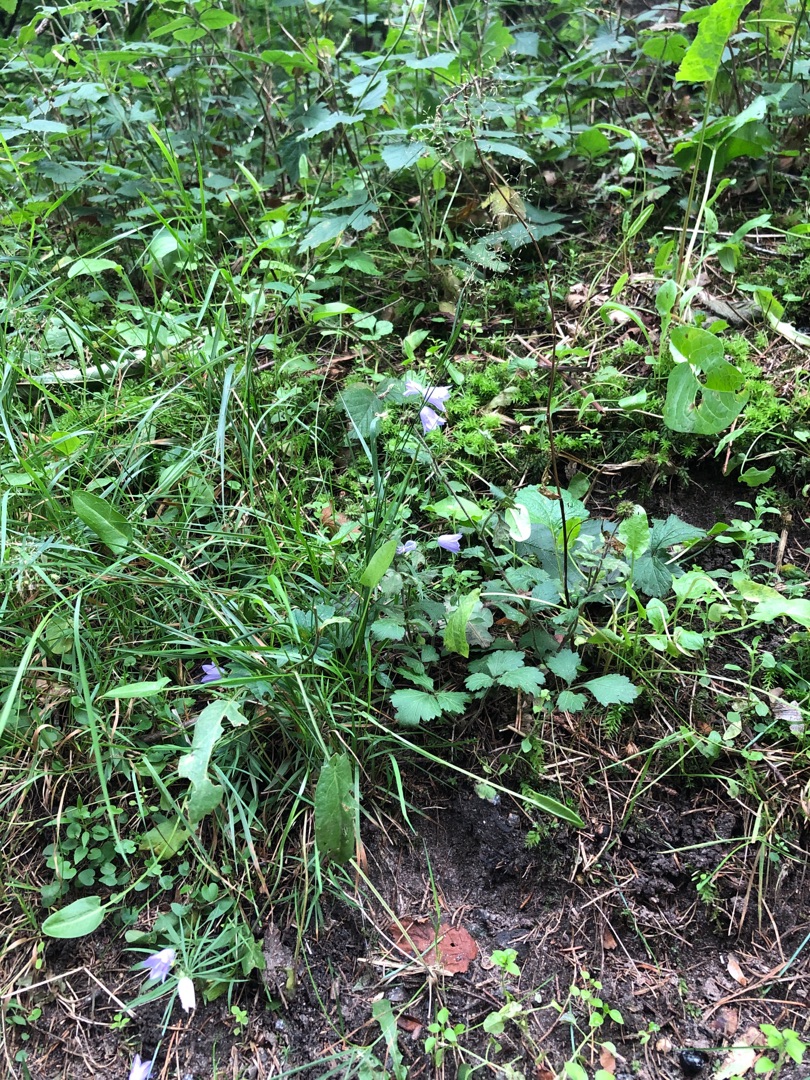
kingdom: Plantae
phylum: Tracheophyta
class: Magnoliopsida
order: Asterales
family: Campanulaceae
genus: Campanula
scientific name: Campanula rotundifolia
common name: Liden klokke
